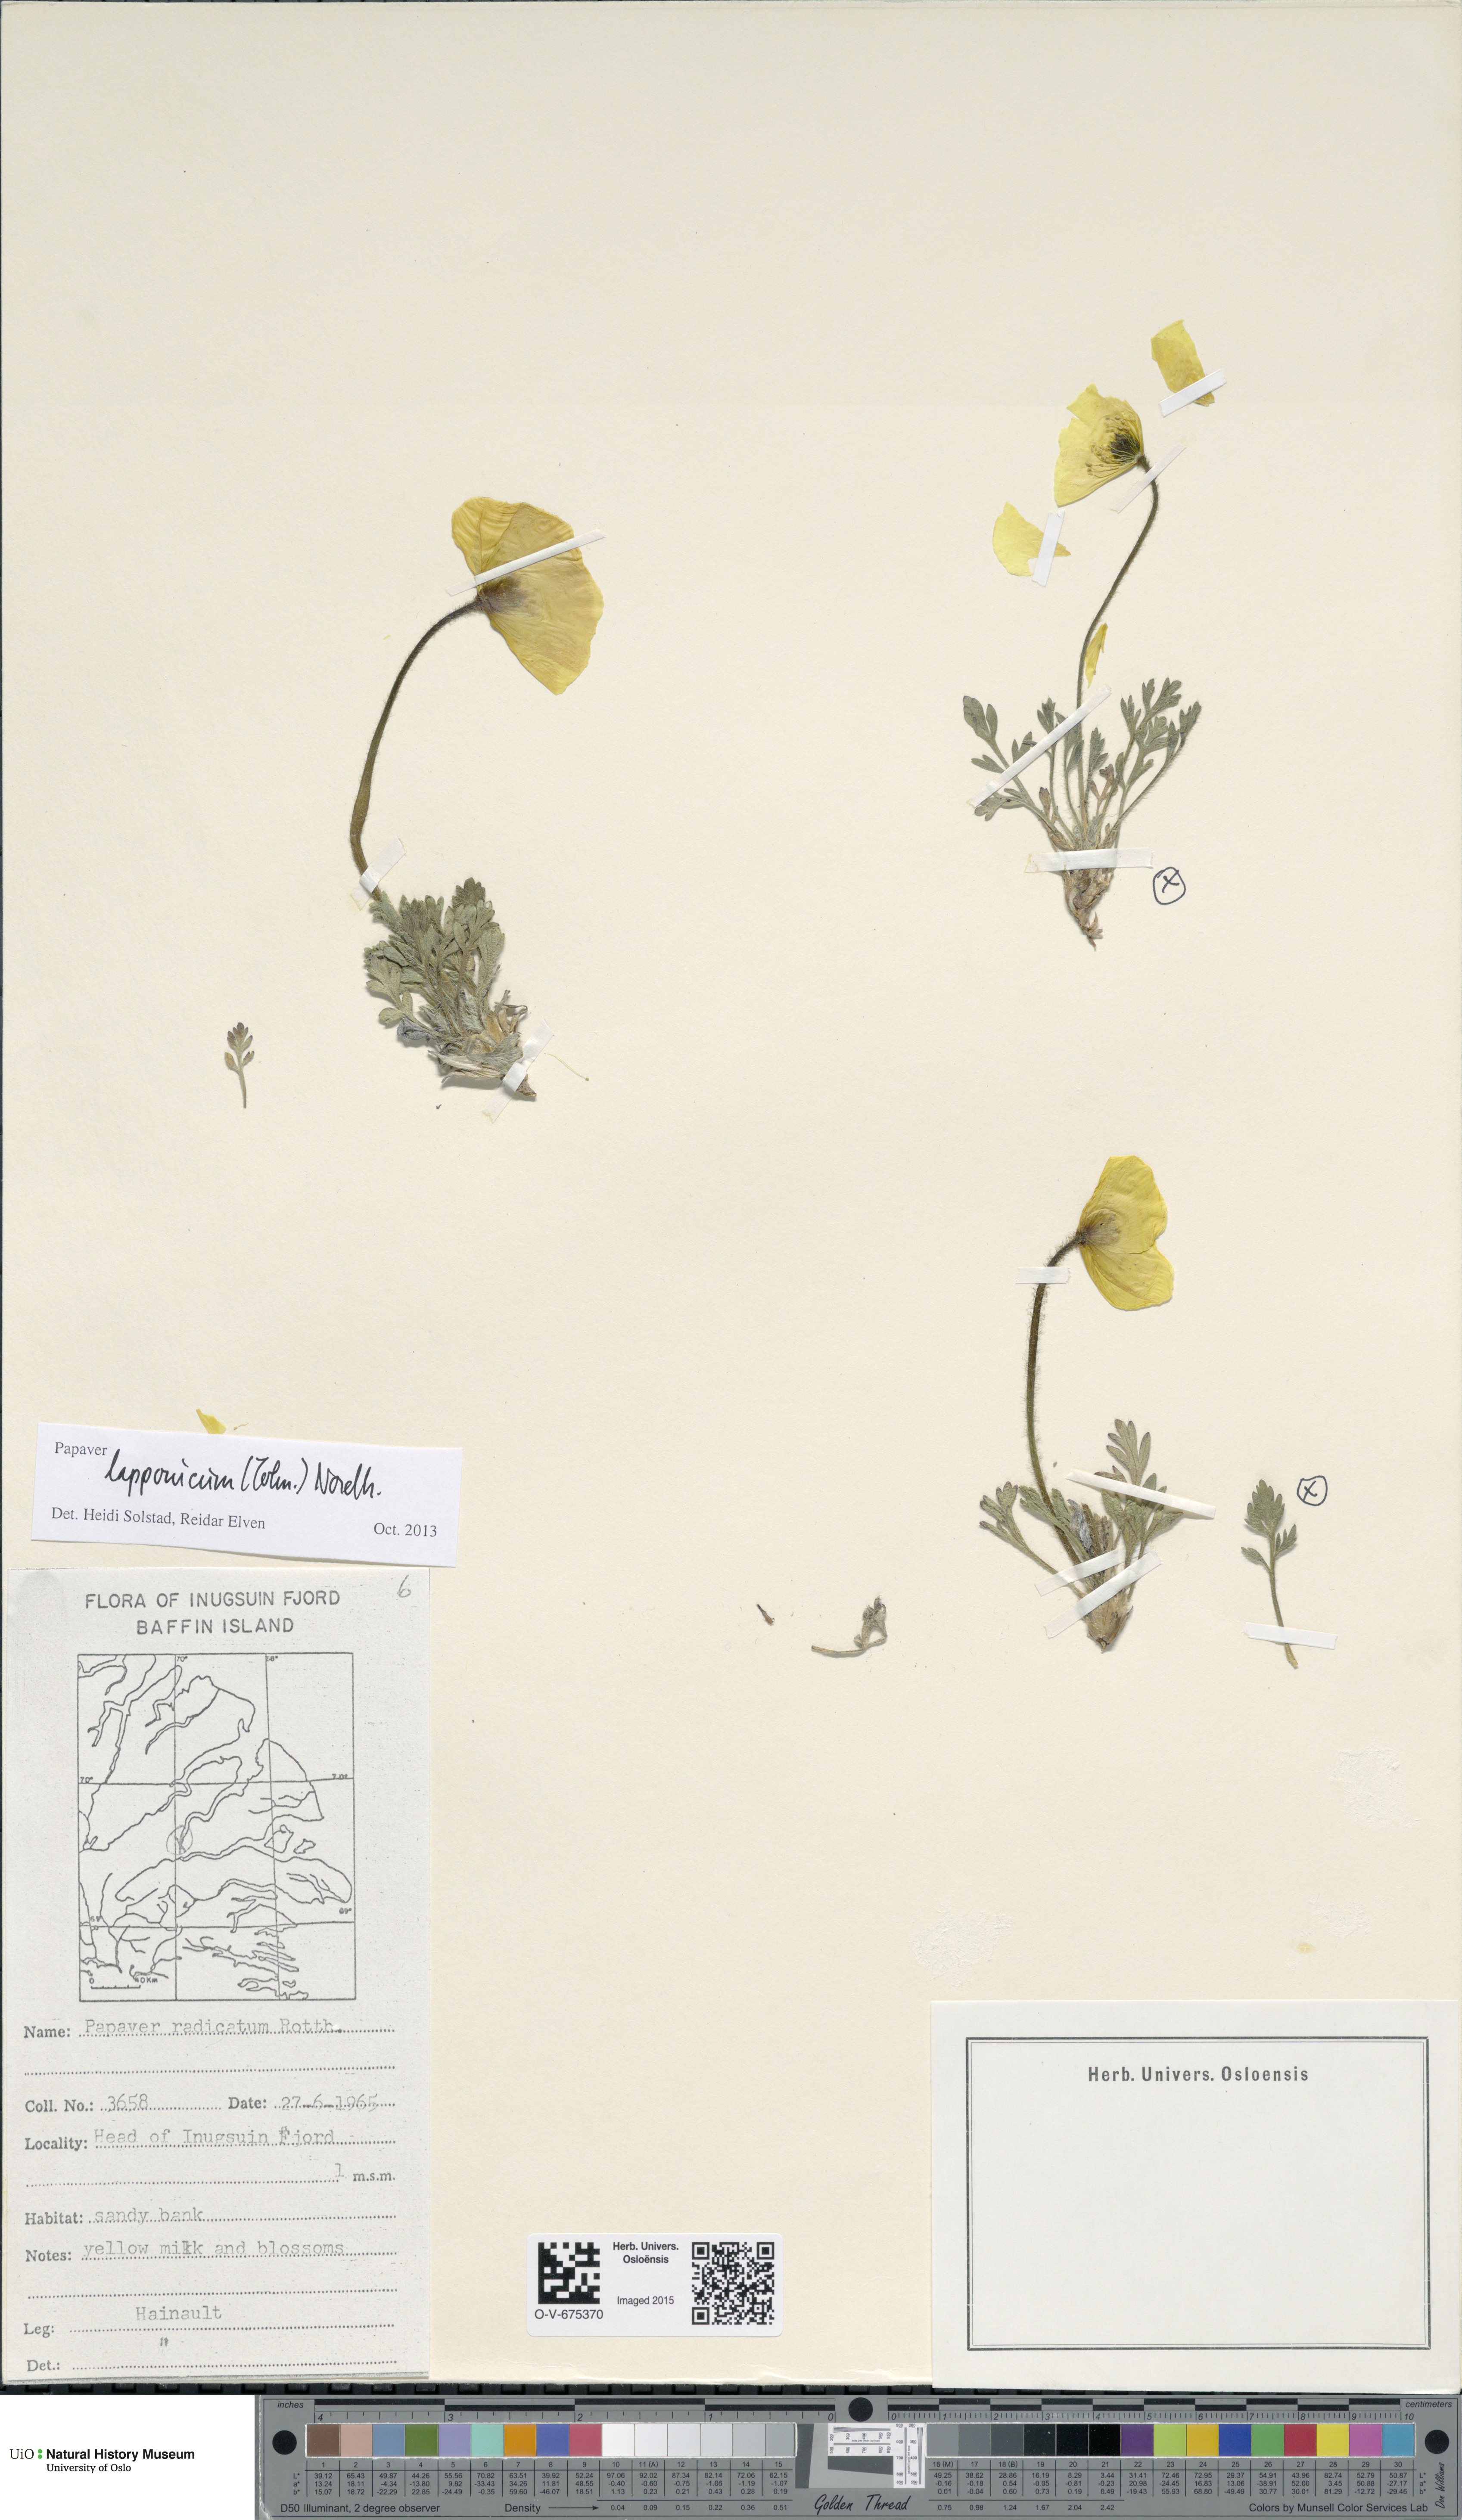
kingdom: Plantae
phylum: Tracheophyta
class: Magnoliopsida
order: Ranunculales
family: Papaveraceae
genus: Papaver
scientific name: Papaver radicatum
